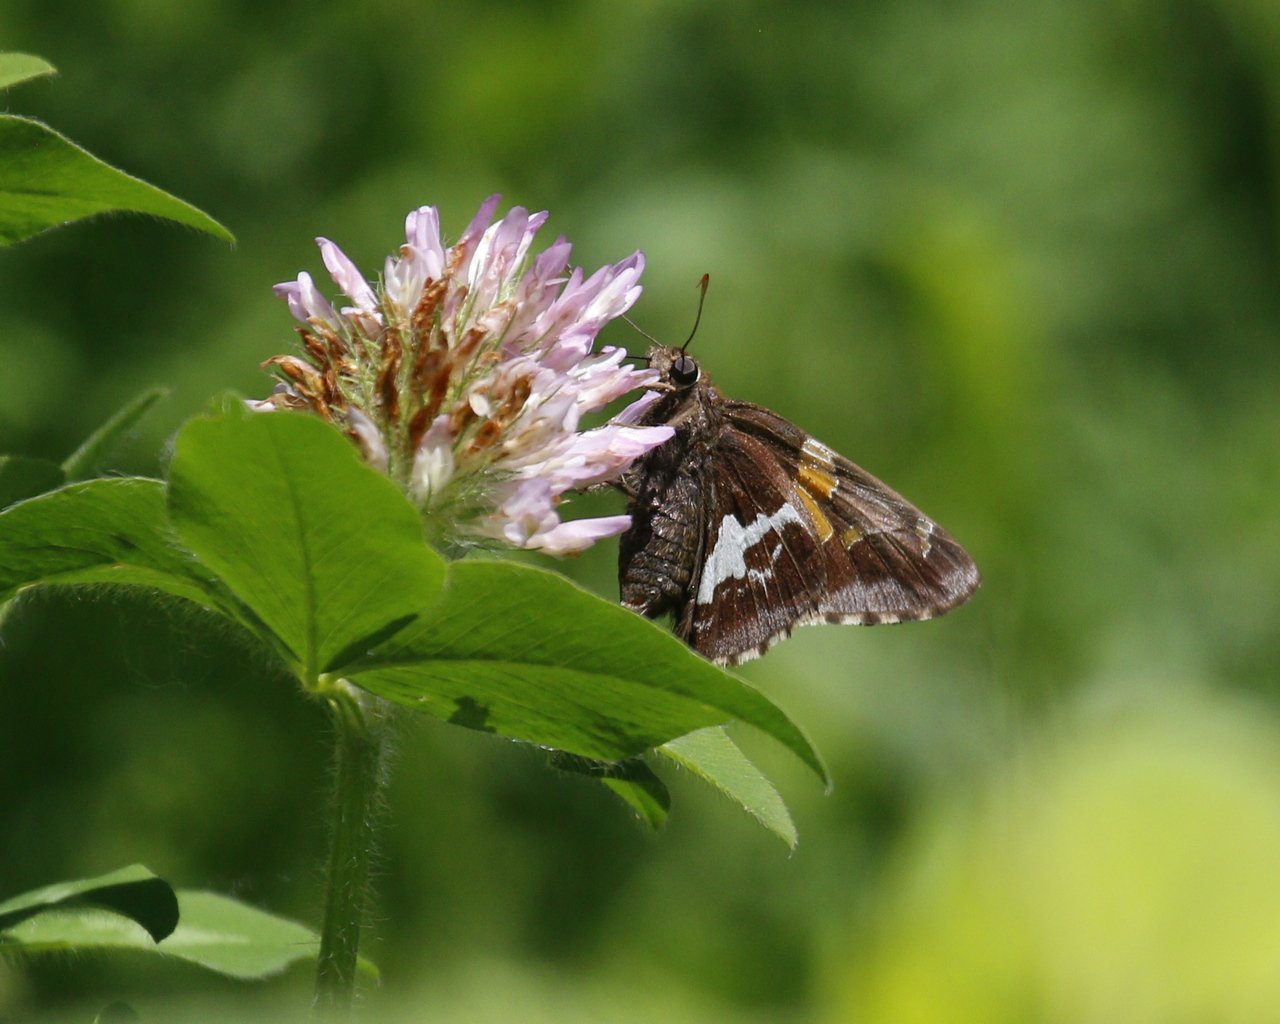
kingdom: Animalia
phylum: Arthropoda
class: Insecta
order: Lepidoptera
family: Hesperiidae
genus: Epargyreus
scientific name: Epargyreus clarus
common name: Silver-spotted Skipper
